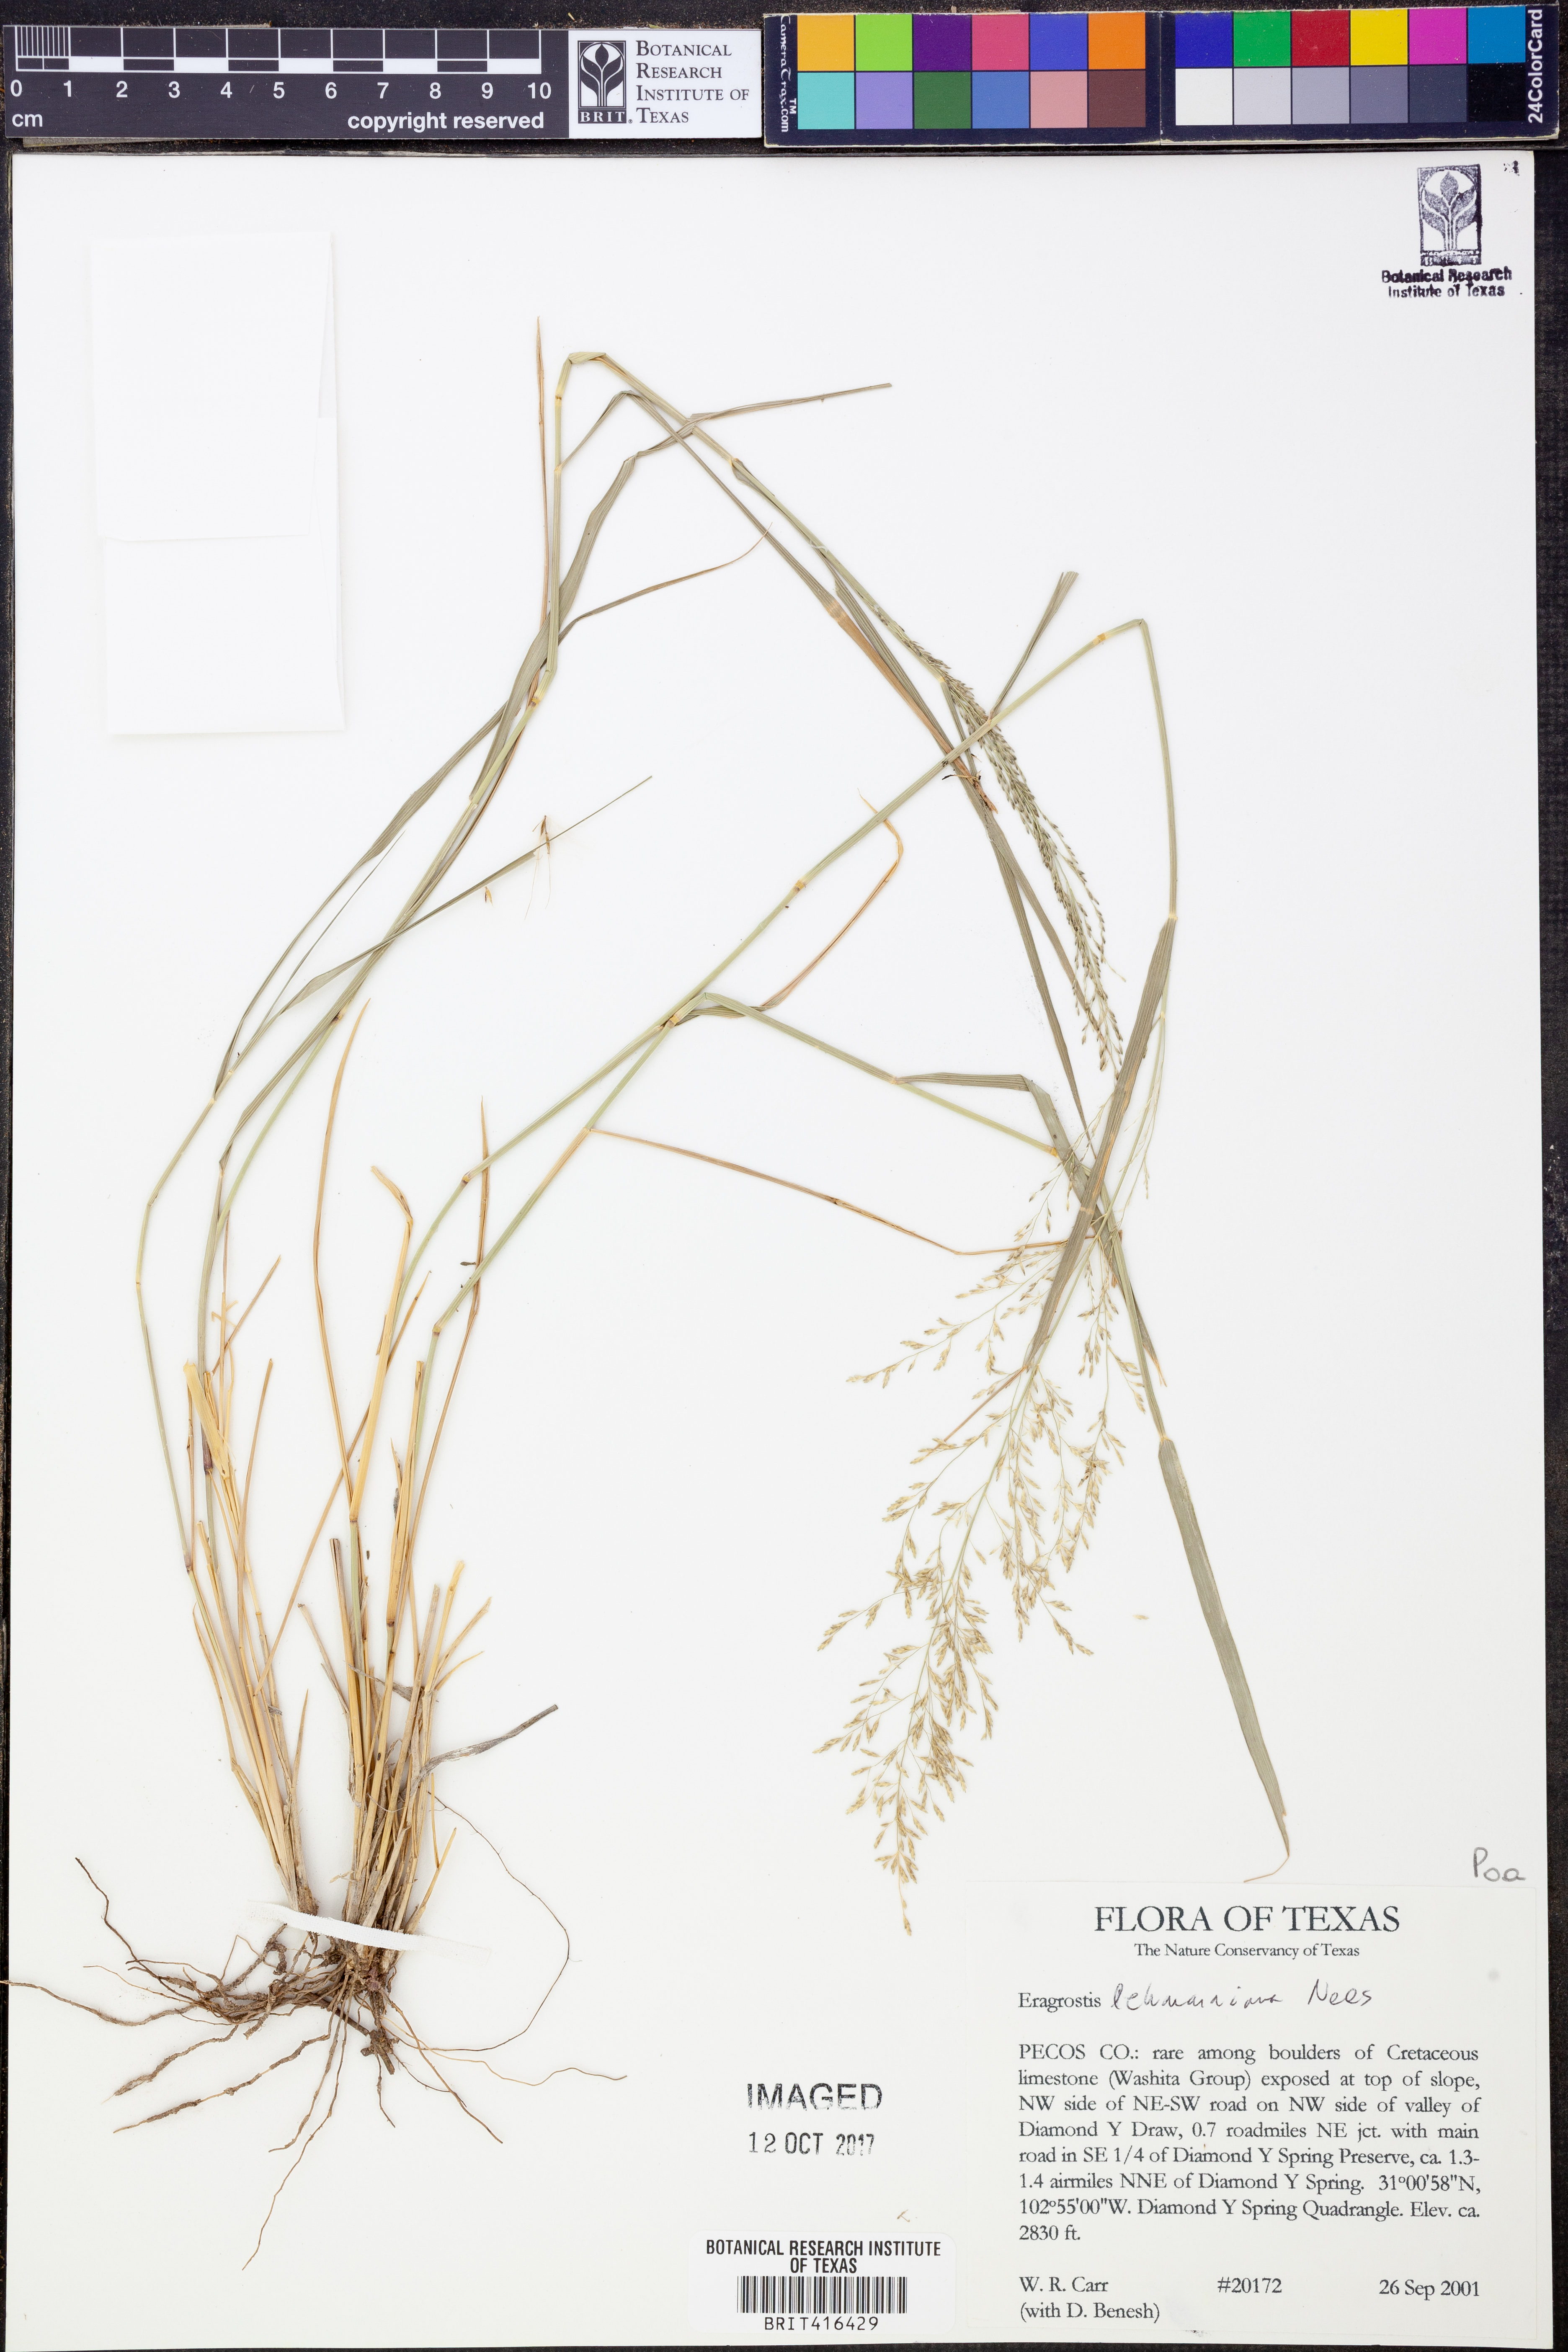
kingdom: Plantae
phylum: Tracheophyta
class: Liliopsida
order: Poales
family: Poaceae
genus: Eragrostis
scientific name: Eragrostis lehmanniana
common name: Lehmann lovegrass
